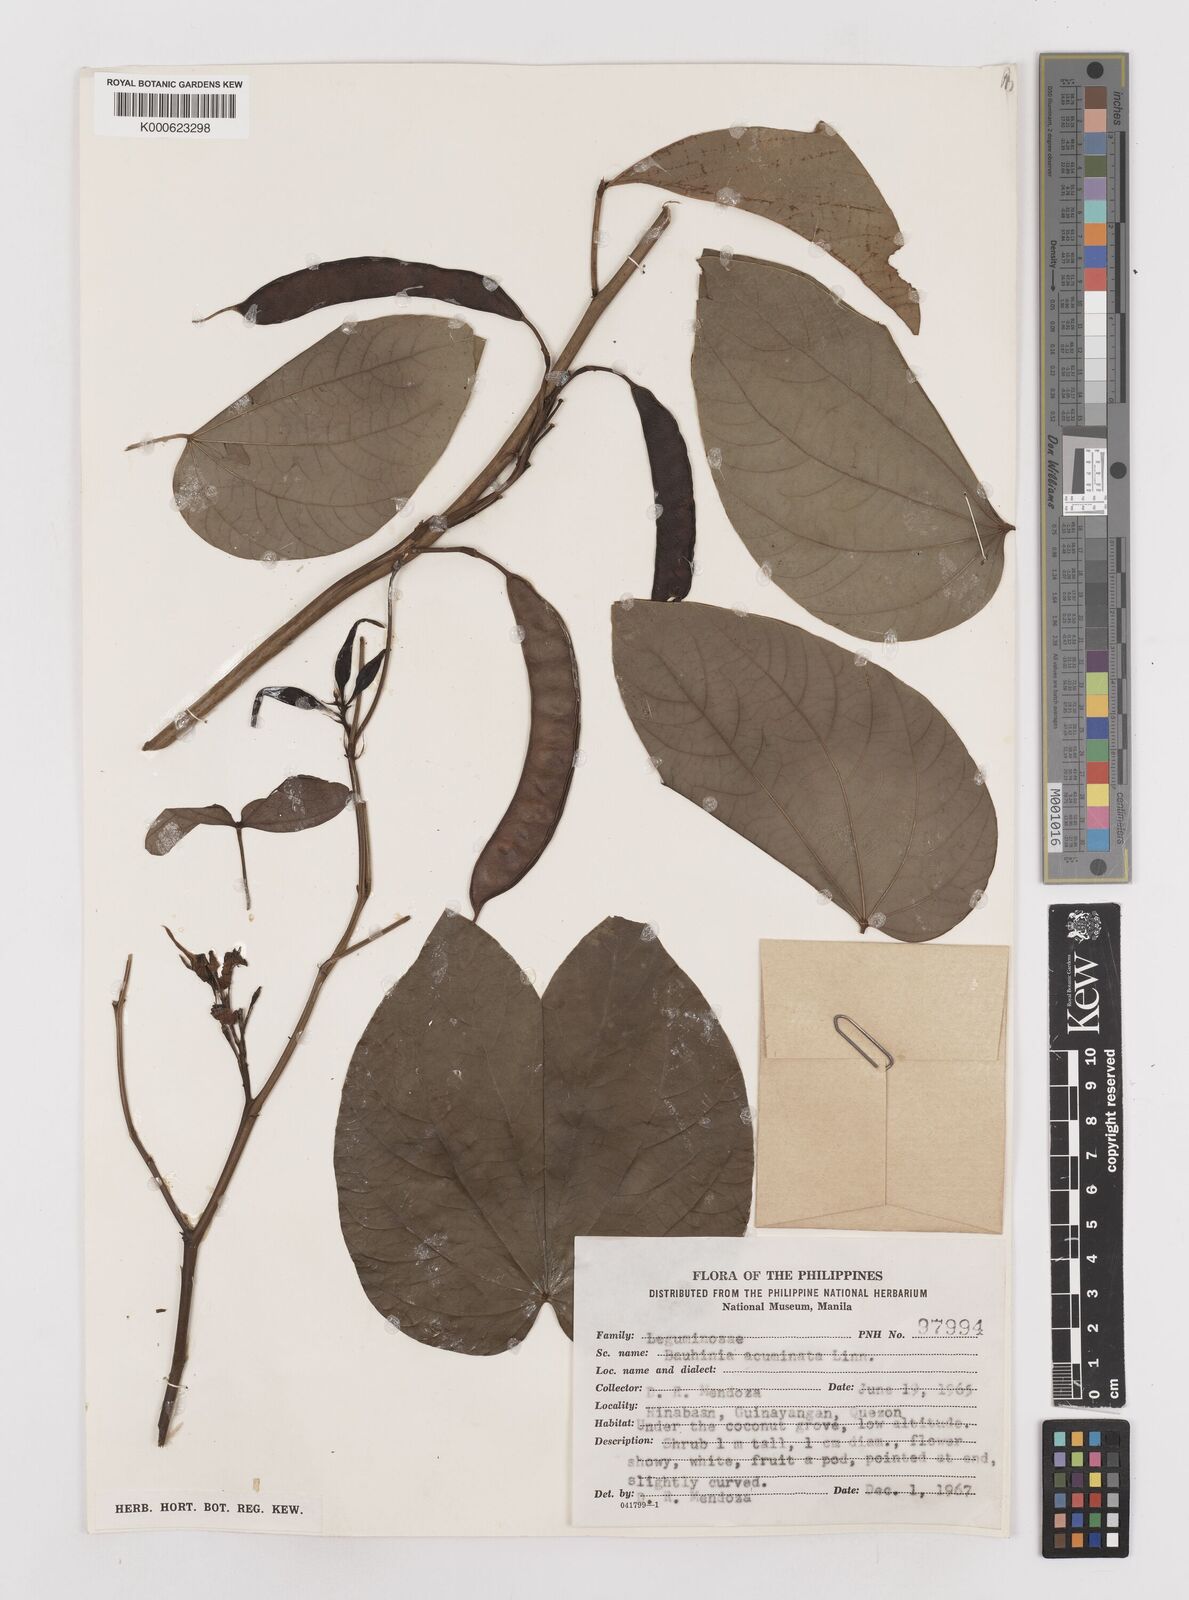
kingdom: Plantae
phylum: Tracheophyta
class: Magnoliopsida
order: Fabales
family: Fabaceae
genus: Bauhinia
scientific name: Bauhinia acuminata
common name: Dwarf white bauhinia
